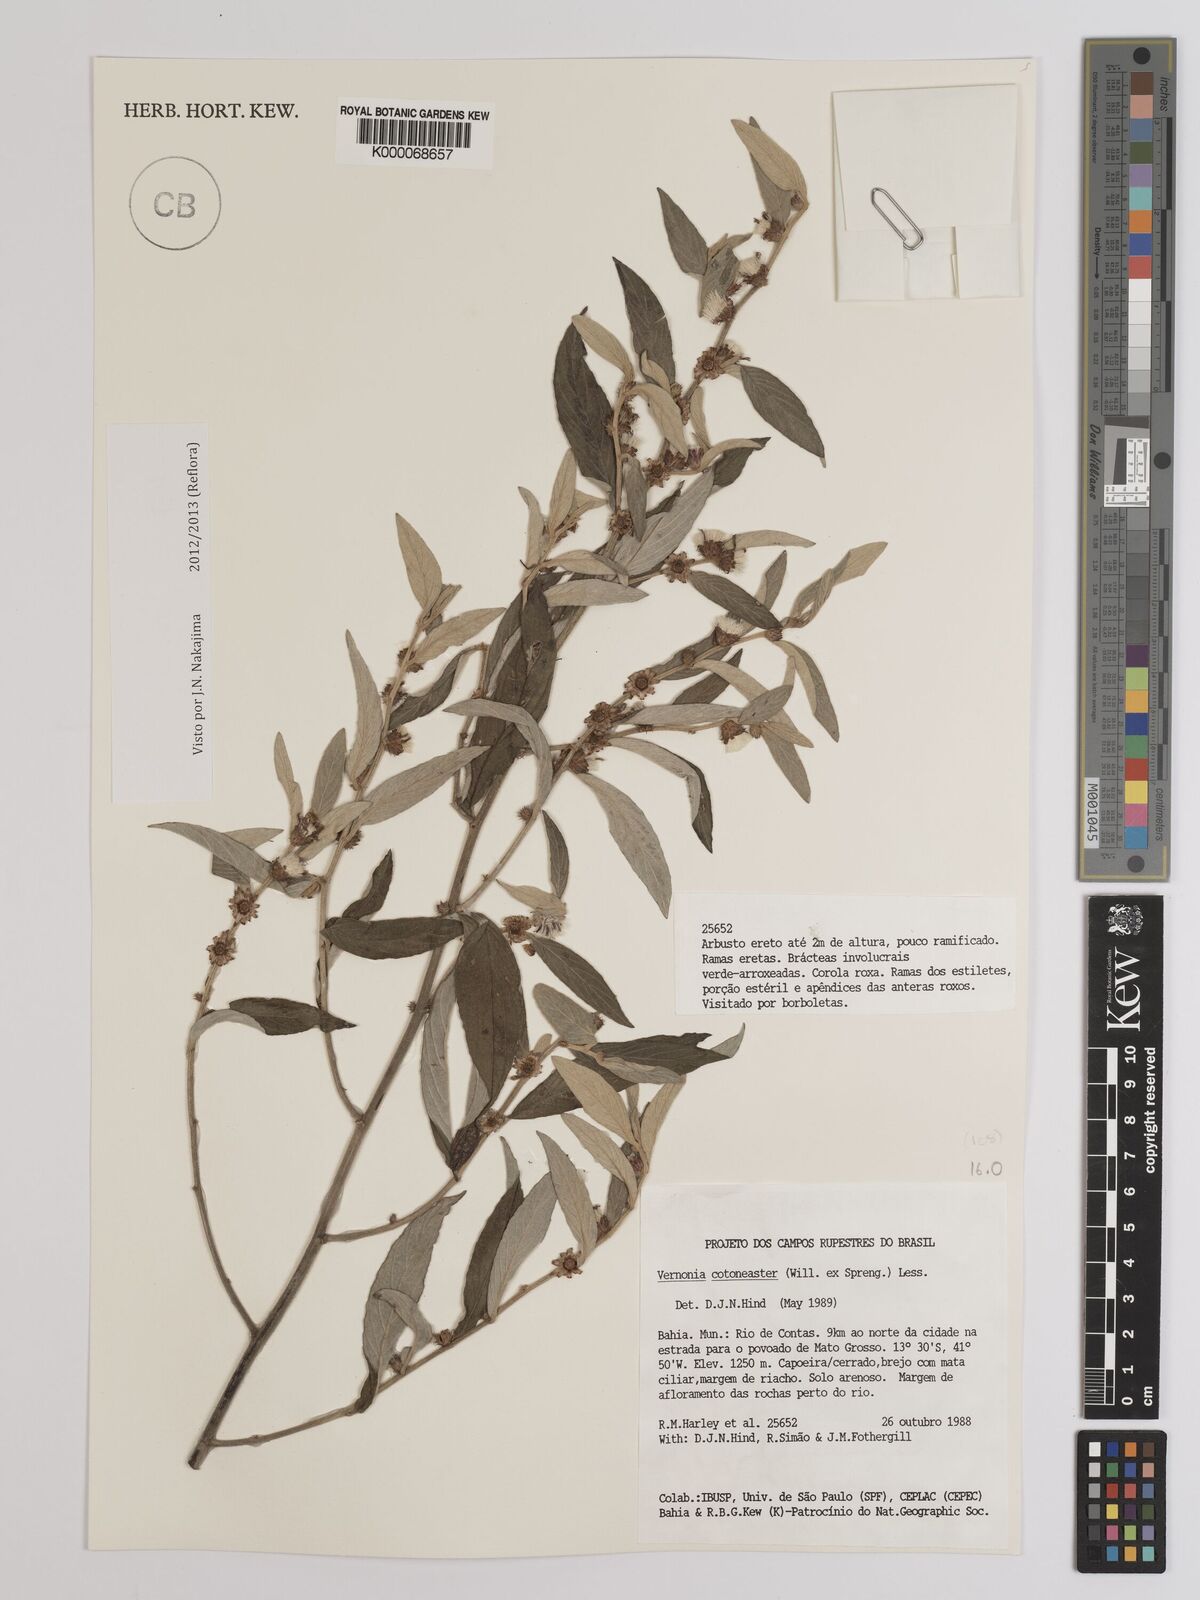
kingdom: Plantae
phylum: Tracheophyta
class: Magnoliopsida
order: Asterales
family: Asteraceae
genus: Lepidaploa
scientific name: Lepidaploa cotoneaster
